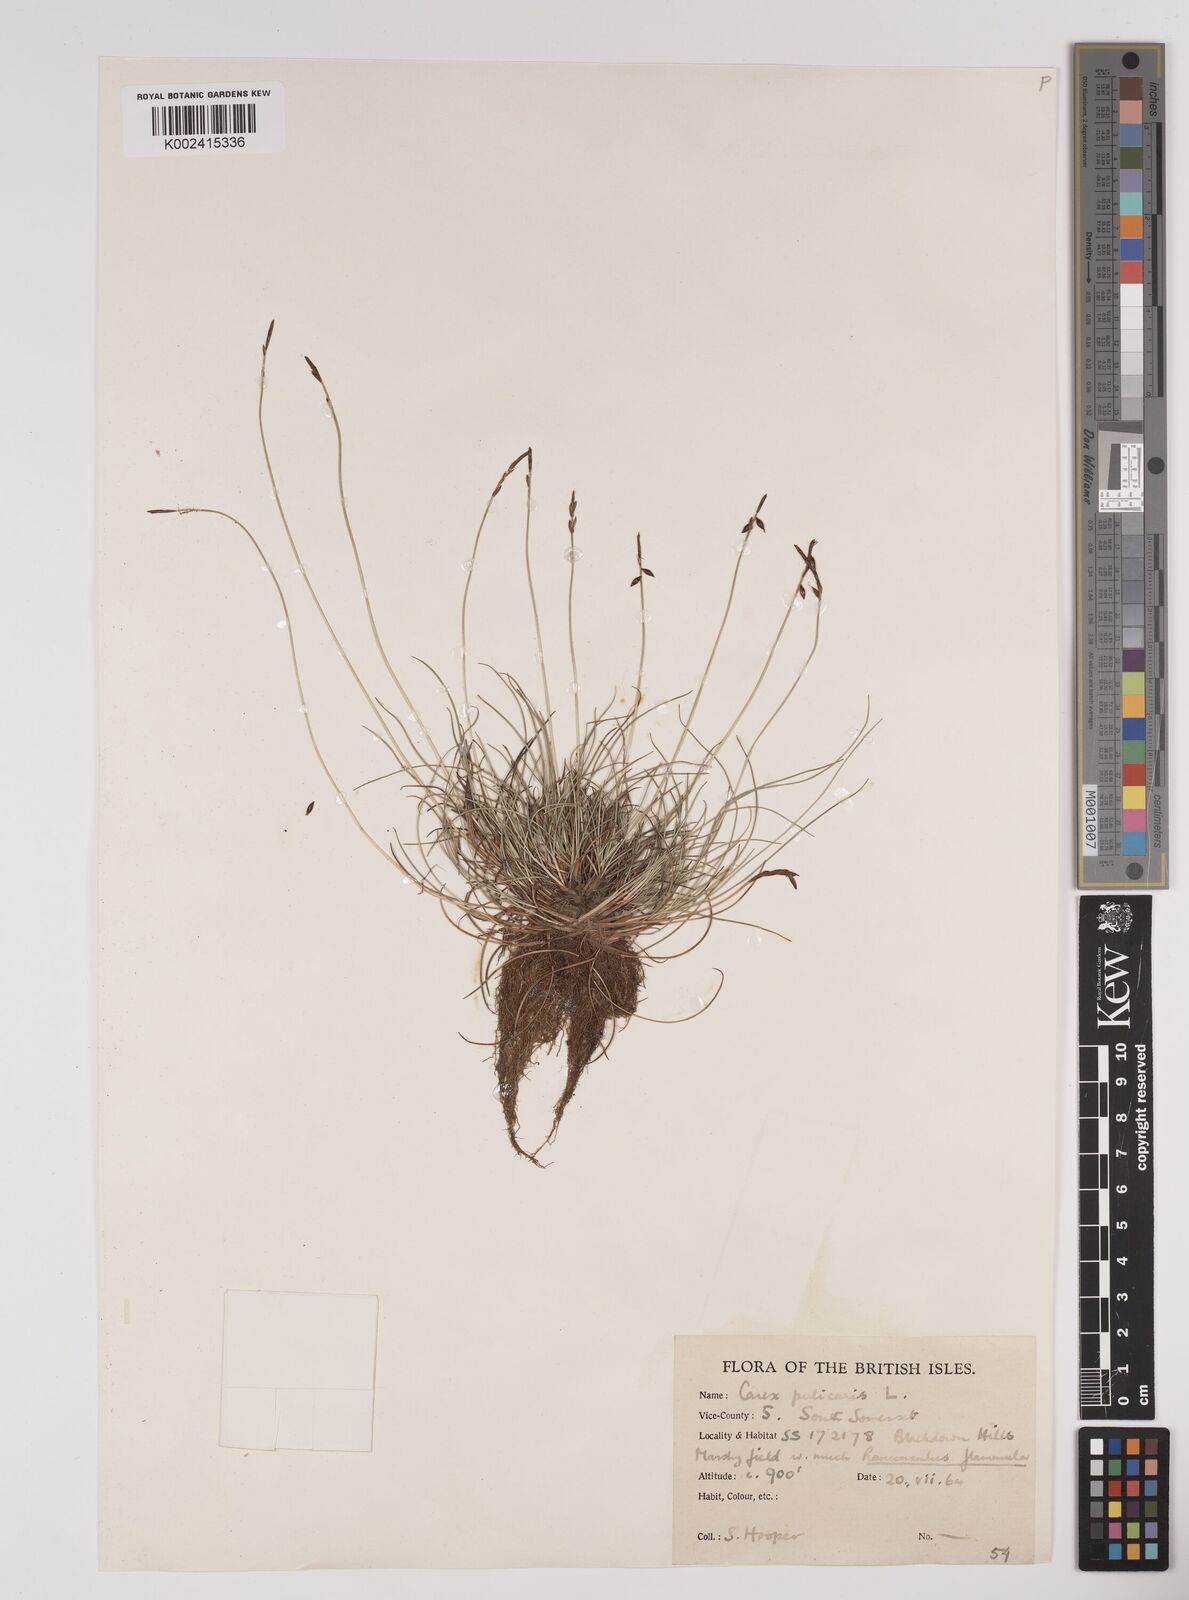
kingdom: Plantae
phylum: Tracheophyta
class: Liliopsida
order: Poales
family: Cyperaceae
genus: Carex
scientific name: Carex pulicaris
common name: Flea sedge
